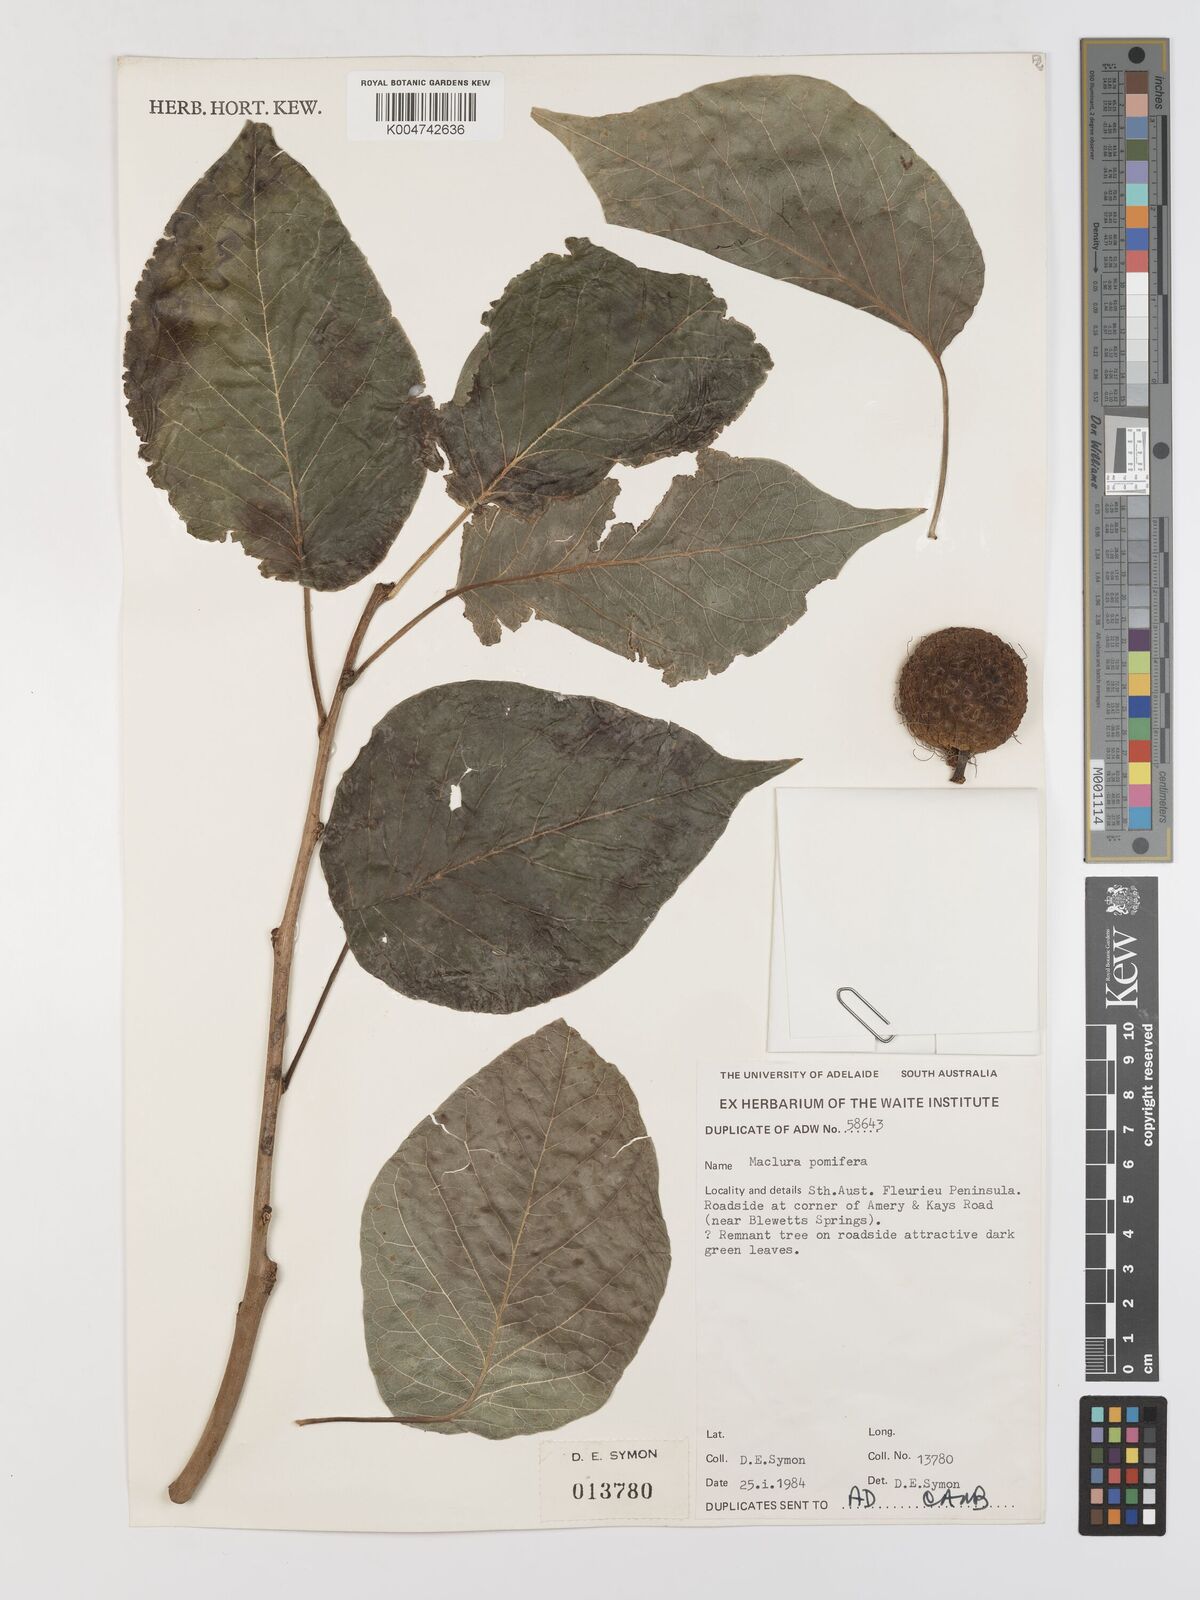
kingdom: Plantae
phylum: Tracheophyta
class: Magnoliopsida
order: Rosales
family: Moraceae
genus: Maclura
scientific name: Maclura cochinchinensis
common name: Cockspurthorn
